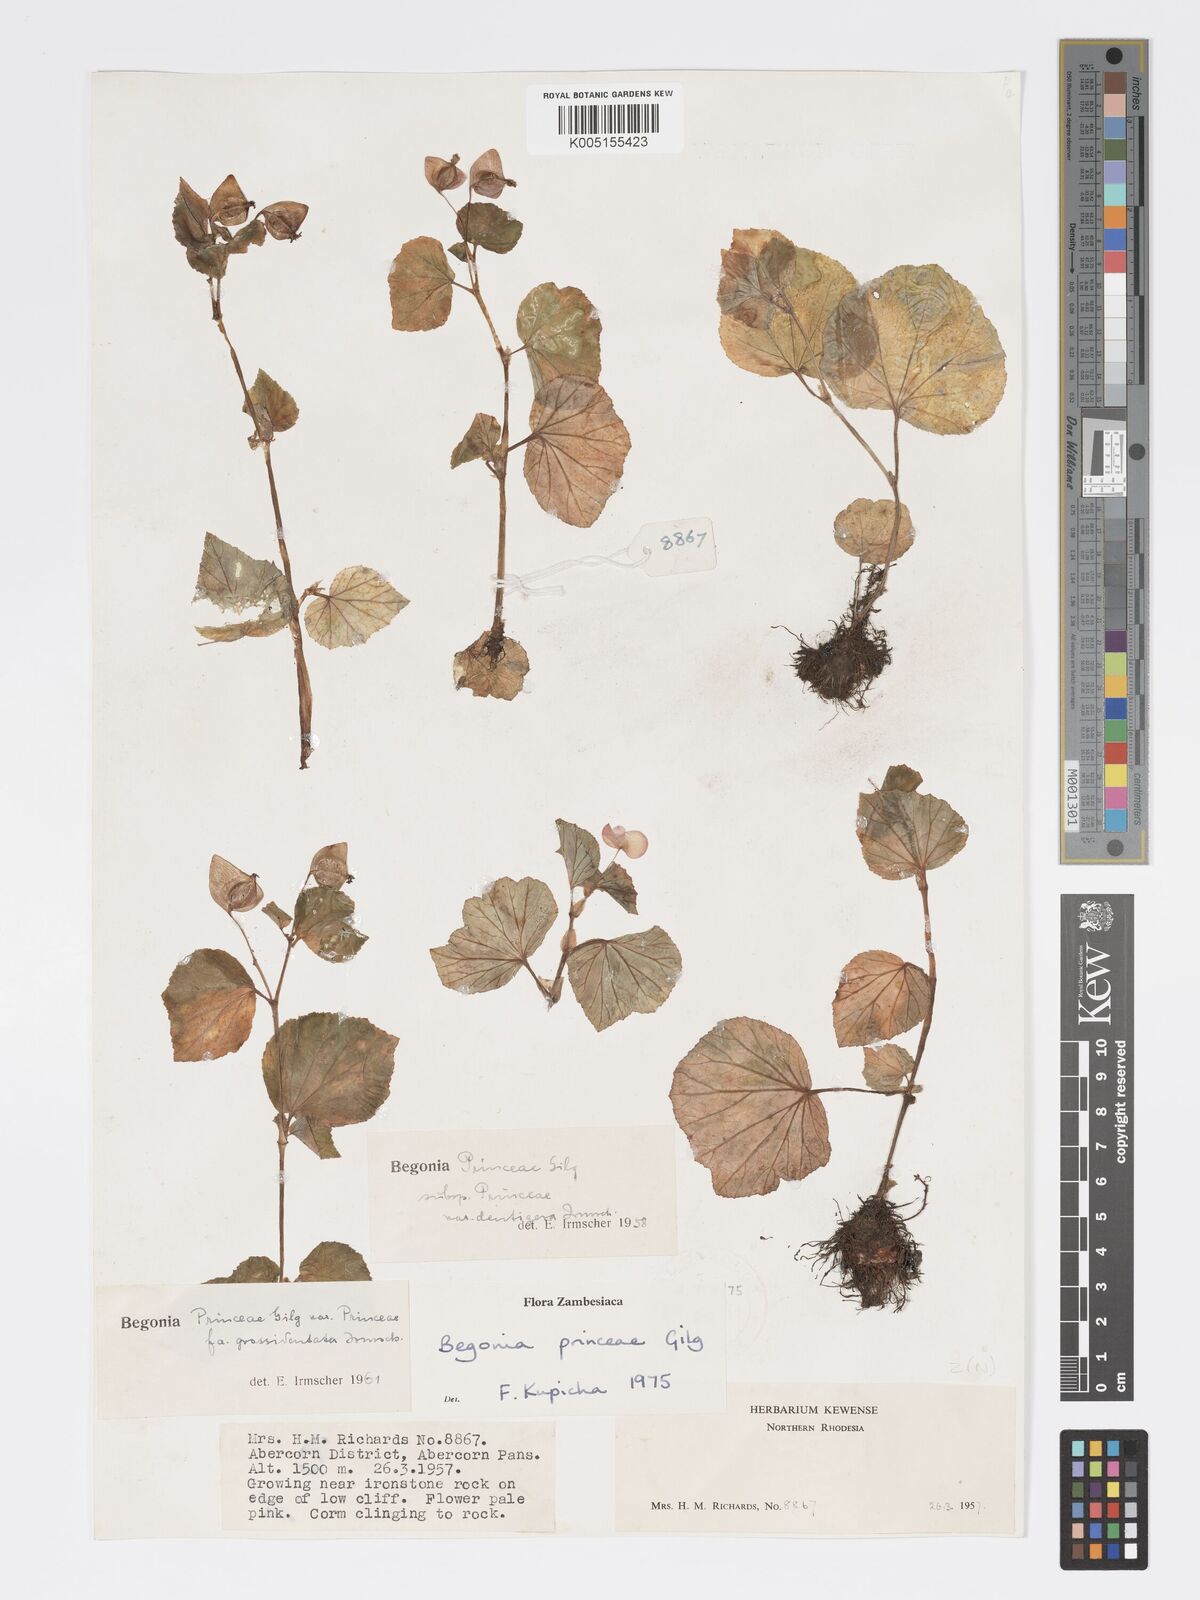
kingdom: Plantae
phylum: Tracheophyta
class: Magnoliopsida
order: Cucurbitales
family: Begoniaceae
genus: Begonia
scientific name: Begonia princeae
